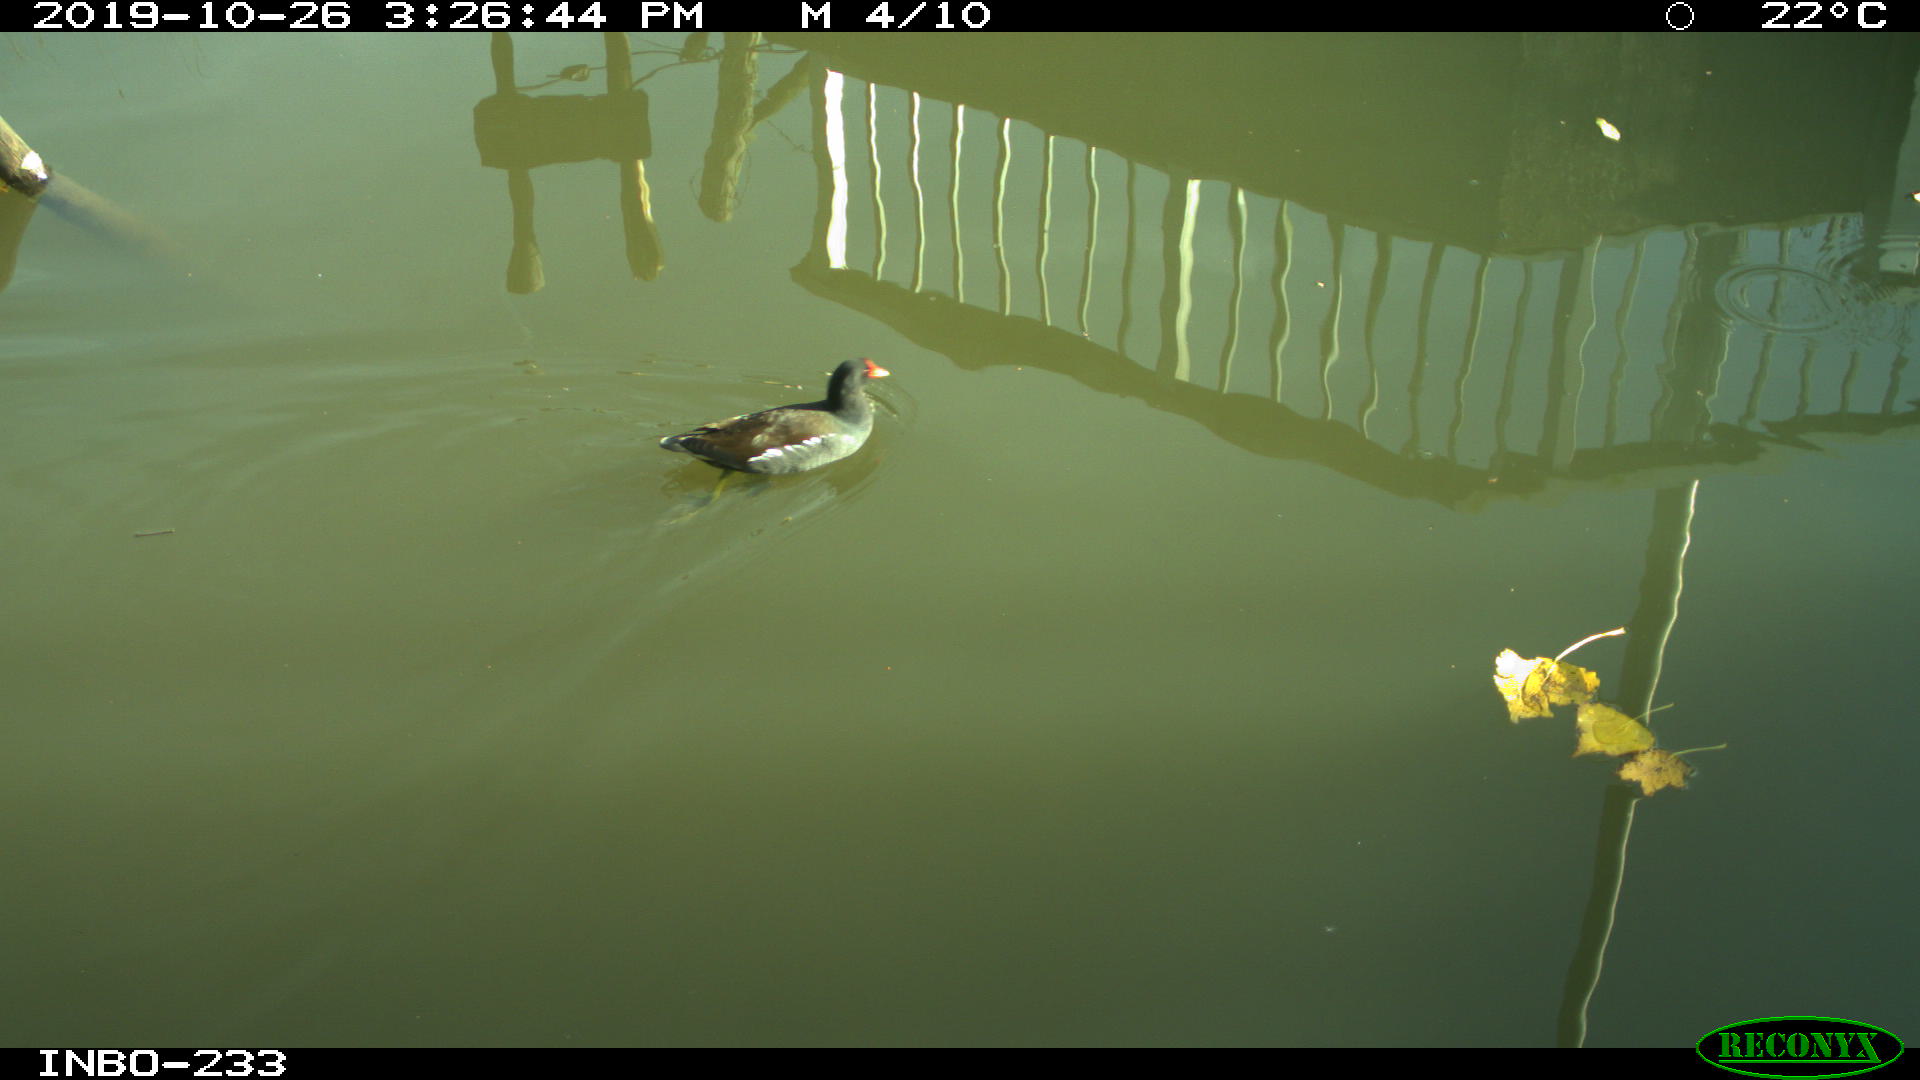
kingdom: Animalia
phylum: Chordata
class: Aves
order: Gruiformes
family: Rallidae
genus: Gallinula
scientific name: Gallinula chloropus
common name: Common moorhen
